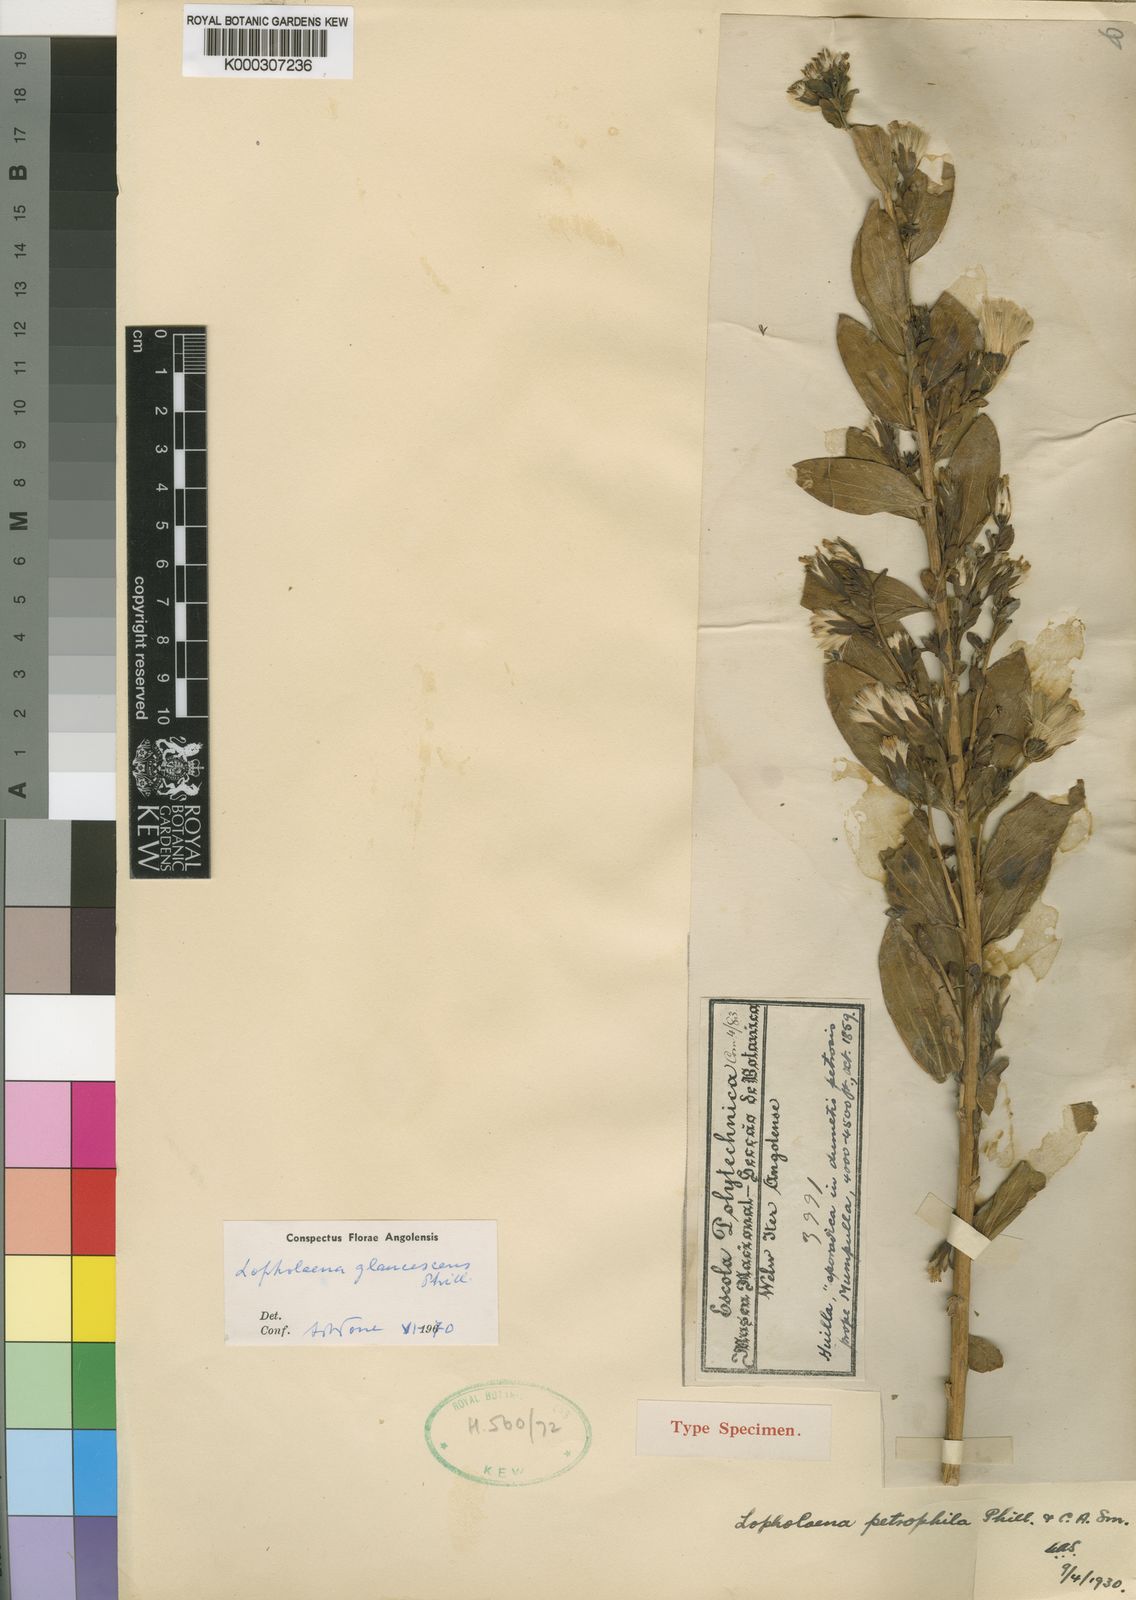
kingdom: Plantae
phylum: Tracheophyta
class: Magnoliopsida
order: Asterales
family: Asteraceae
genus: Lopholaena
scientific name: Lopholaena glaucescens
